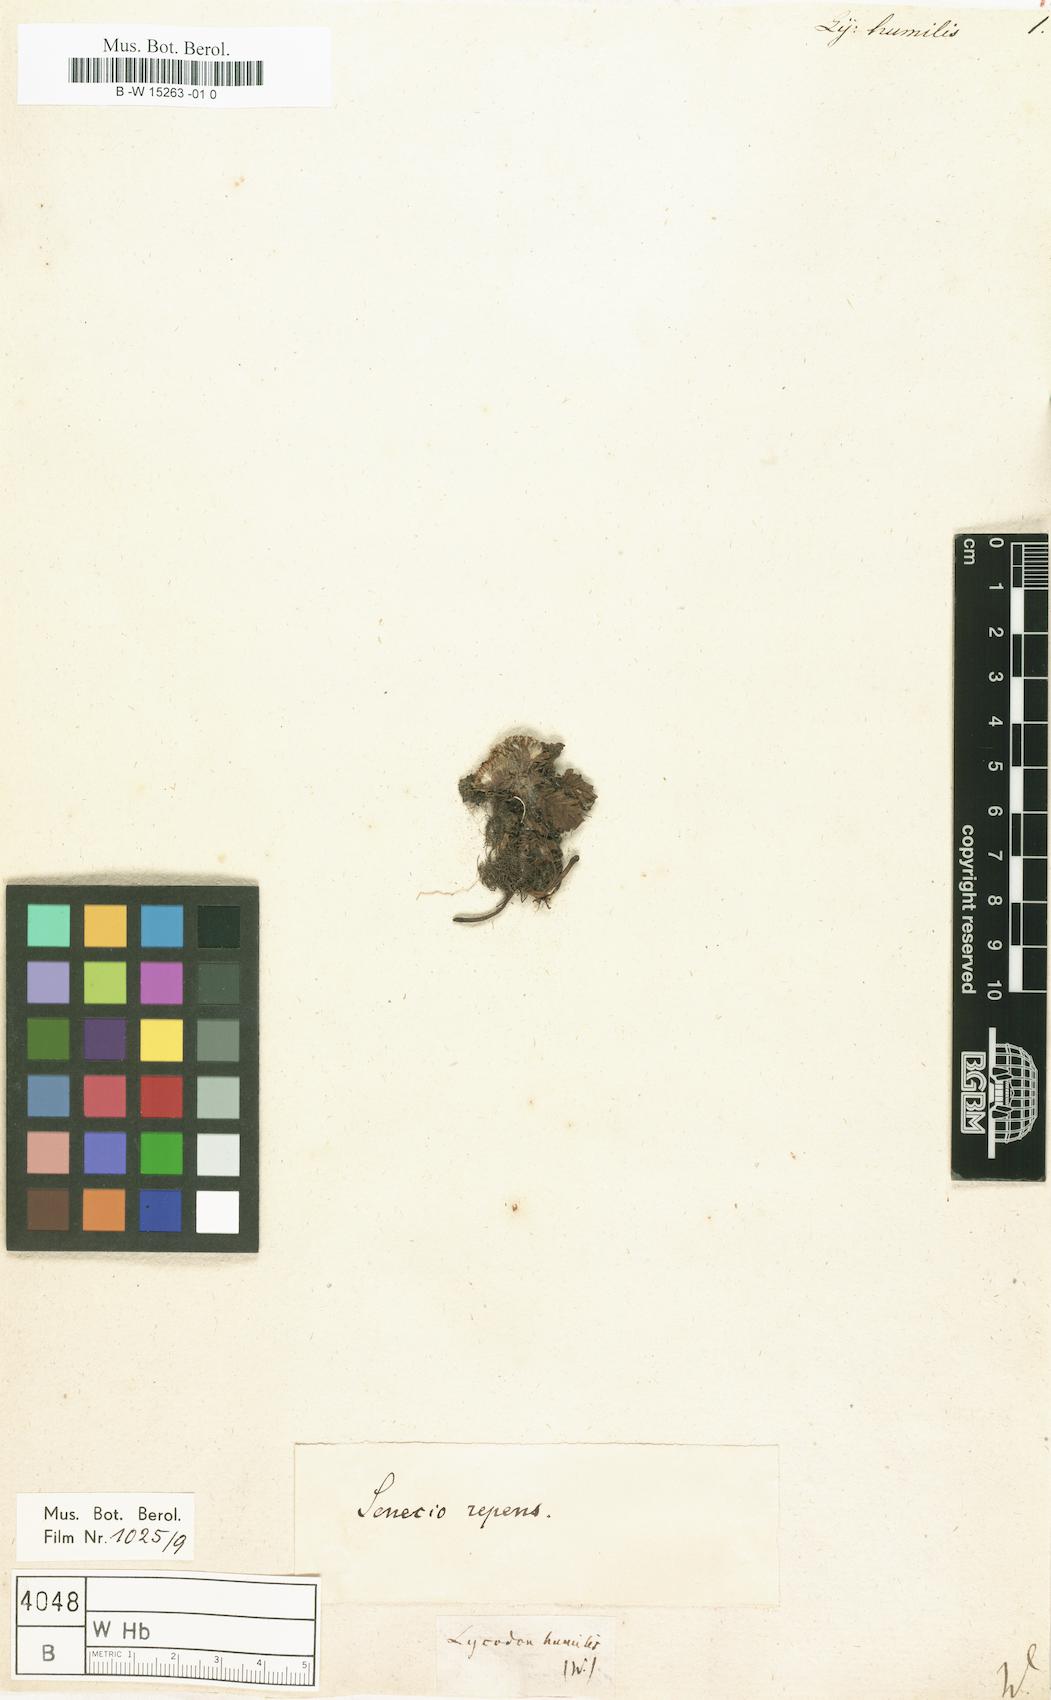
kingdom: Plantae
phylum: Tracheophyta
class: Magnoliopsida
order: Asterales
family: Asteraceae
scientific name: Asteraceae
